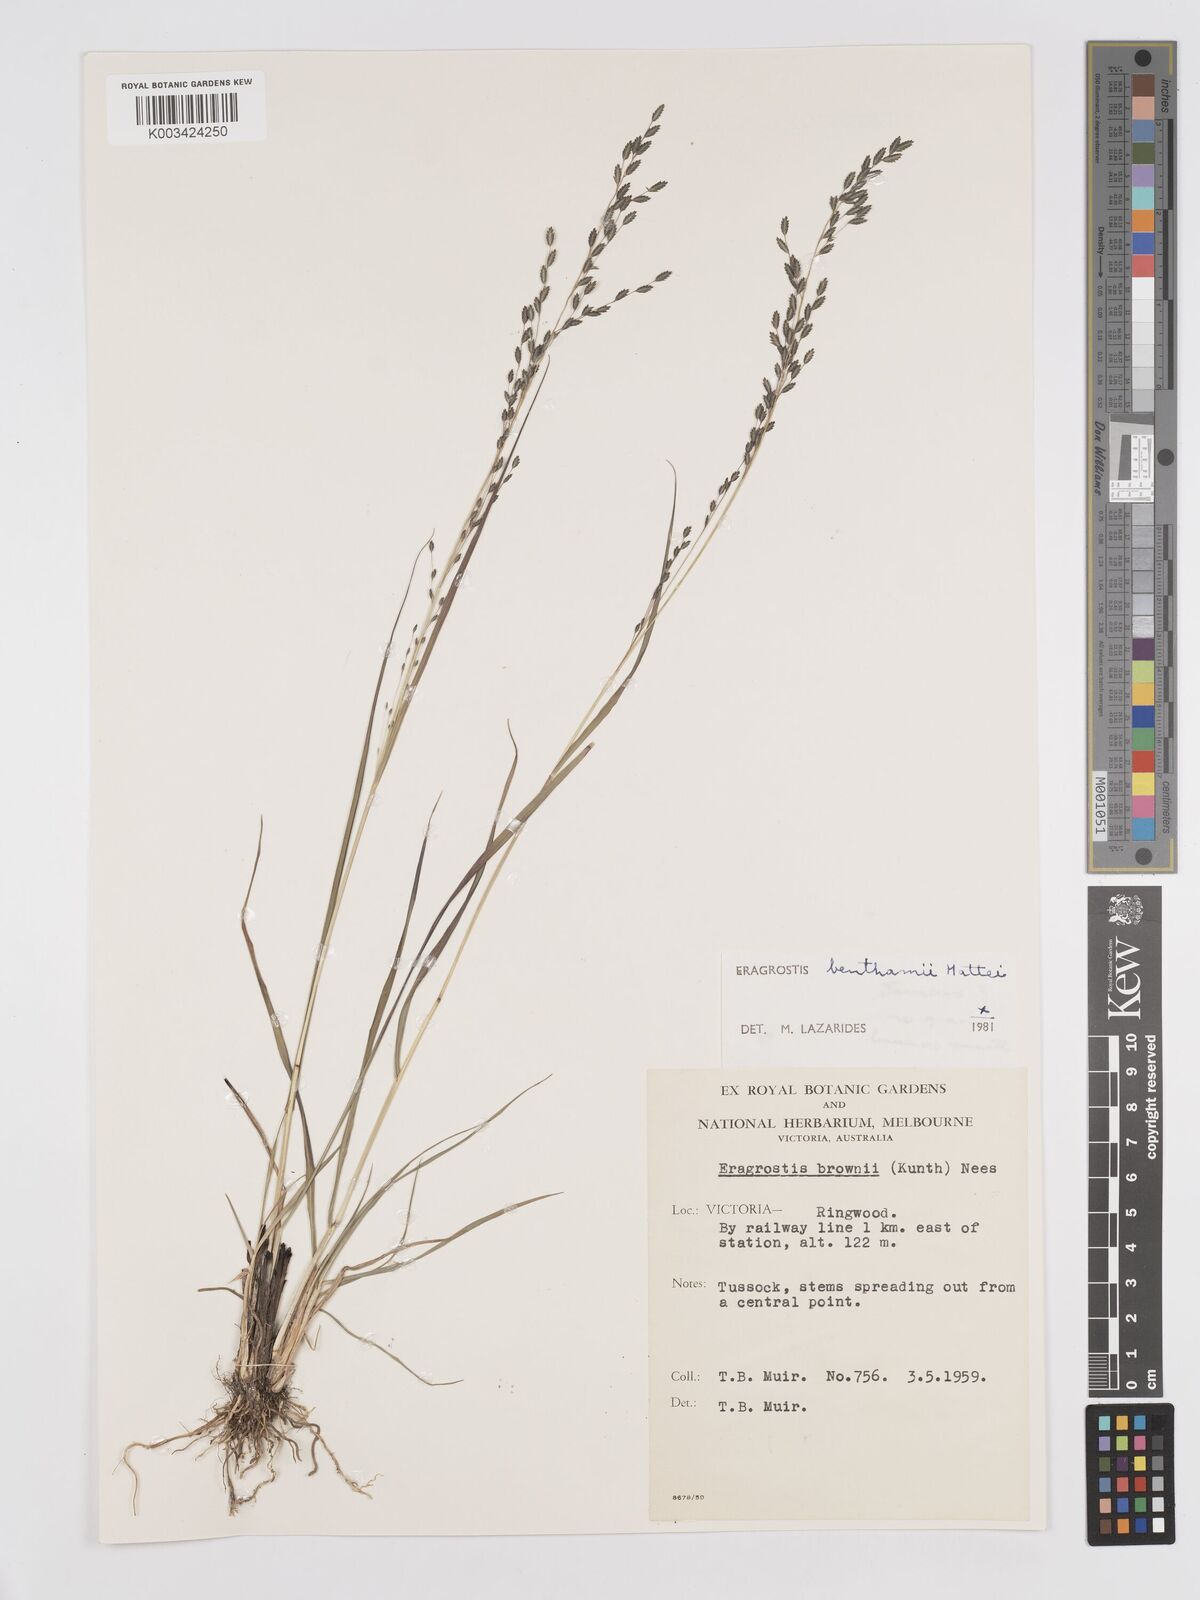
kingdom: Plantae
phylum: Tracheophyta
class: Liliopsida
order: Poales
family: Poaceae
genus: Eragrostis
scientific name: Eragrostis brownii
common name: Lovegrass
